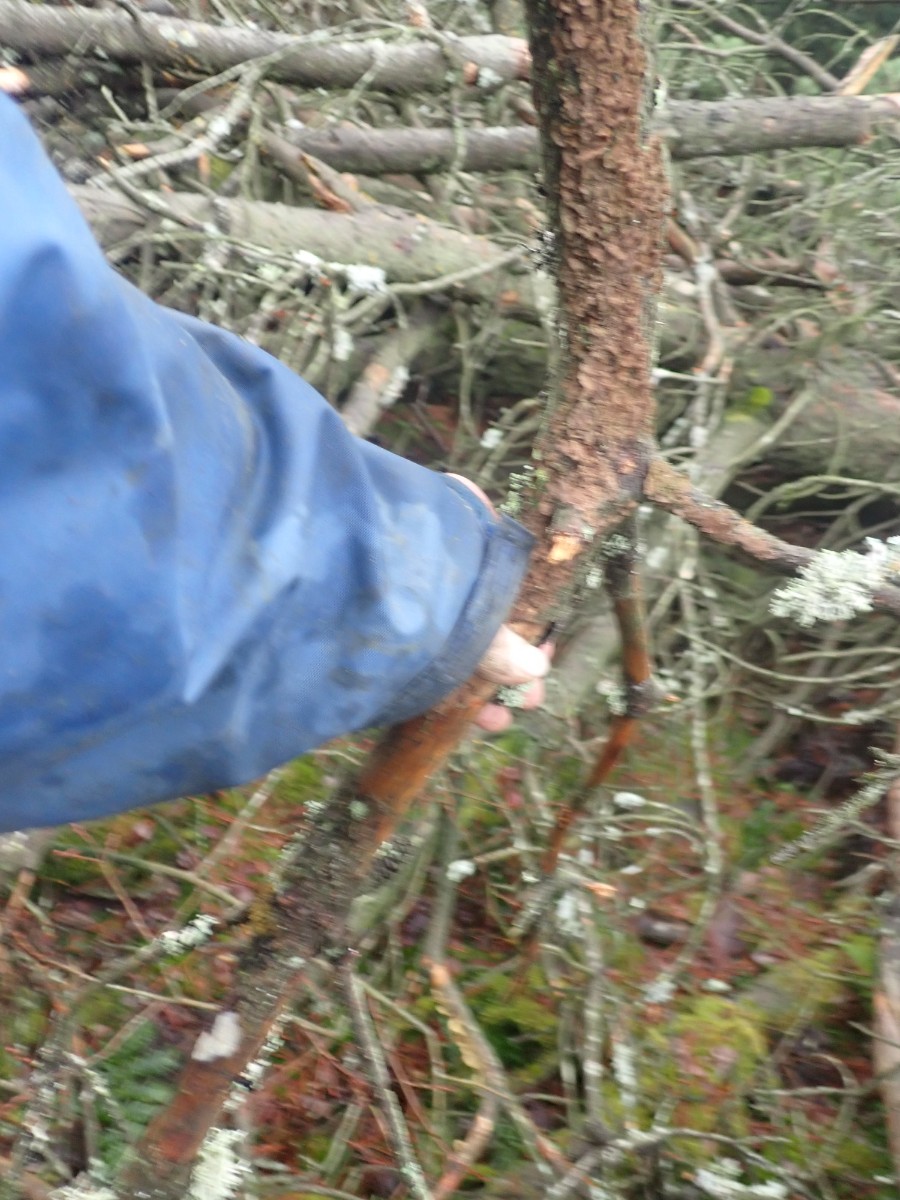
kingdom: Fungi
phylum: Basidiomycota
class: Agaricomycetes
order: Hymenochaetales
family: Hymenochaetaceae
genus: Hydnoporia
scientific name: Hydnoporia tabacina
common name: tobaksbrun ruslædersvamp
